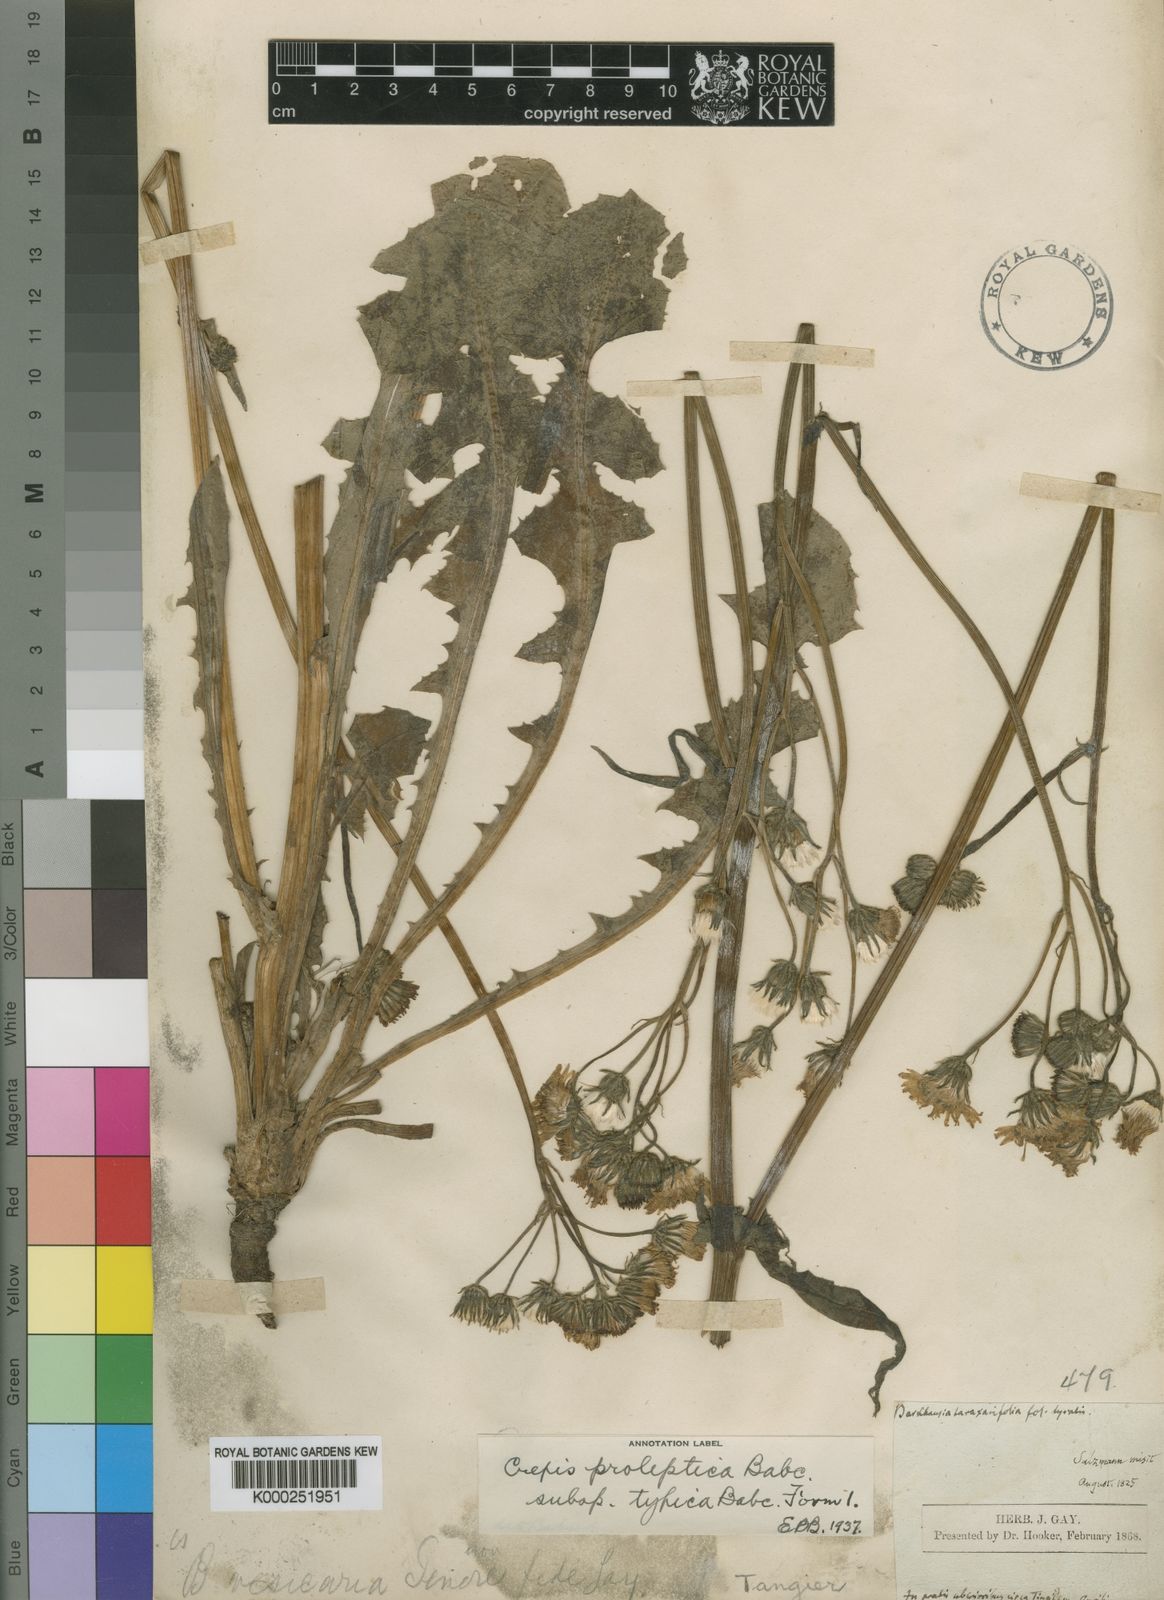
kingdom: Plantae
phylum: Tracheophyta
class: Magnoliopsida
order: Asterales
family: Asteraceae
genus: Crepis
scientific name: Crepis
